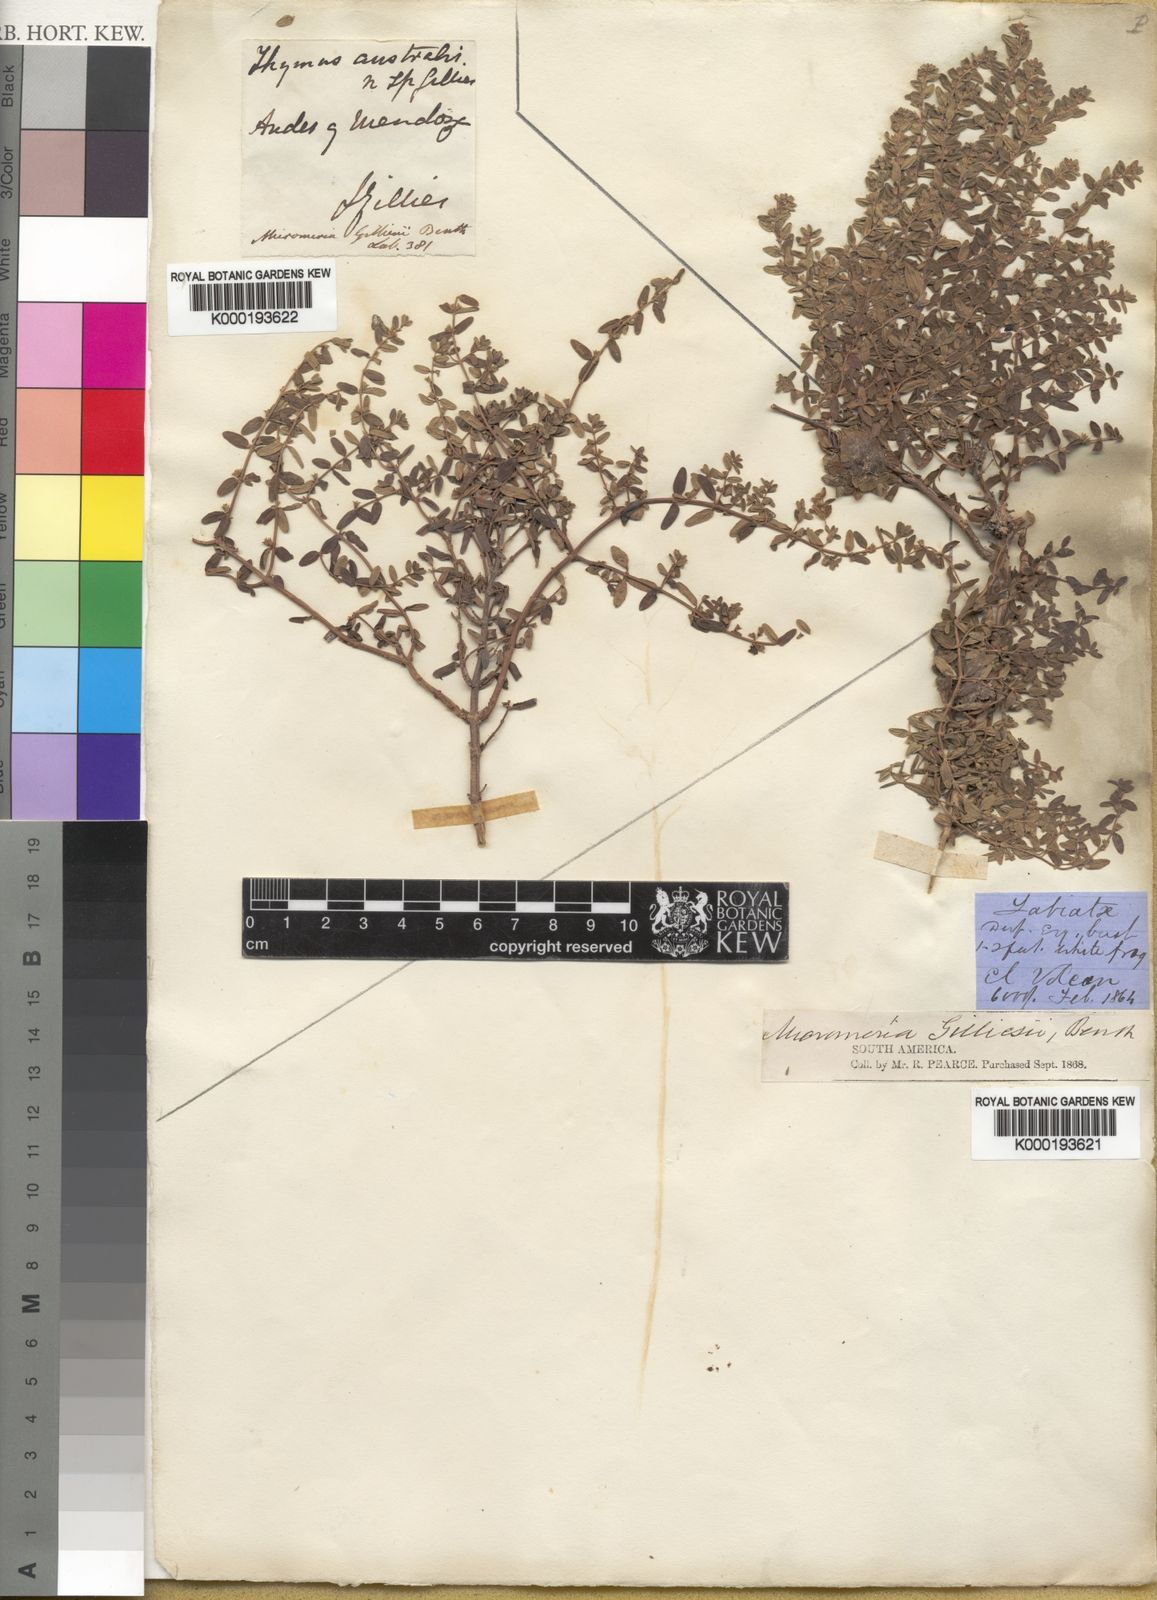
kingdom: Plantae
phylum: Tracheophyta
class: Magnoliopsida
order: Lamiales
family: Lamiaceae
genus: Clinopodium
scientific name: Clinopodium gilliesii
